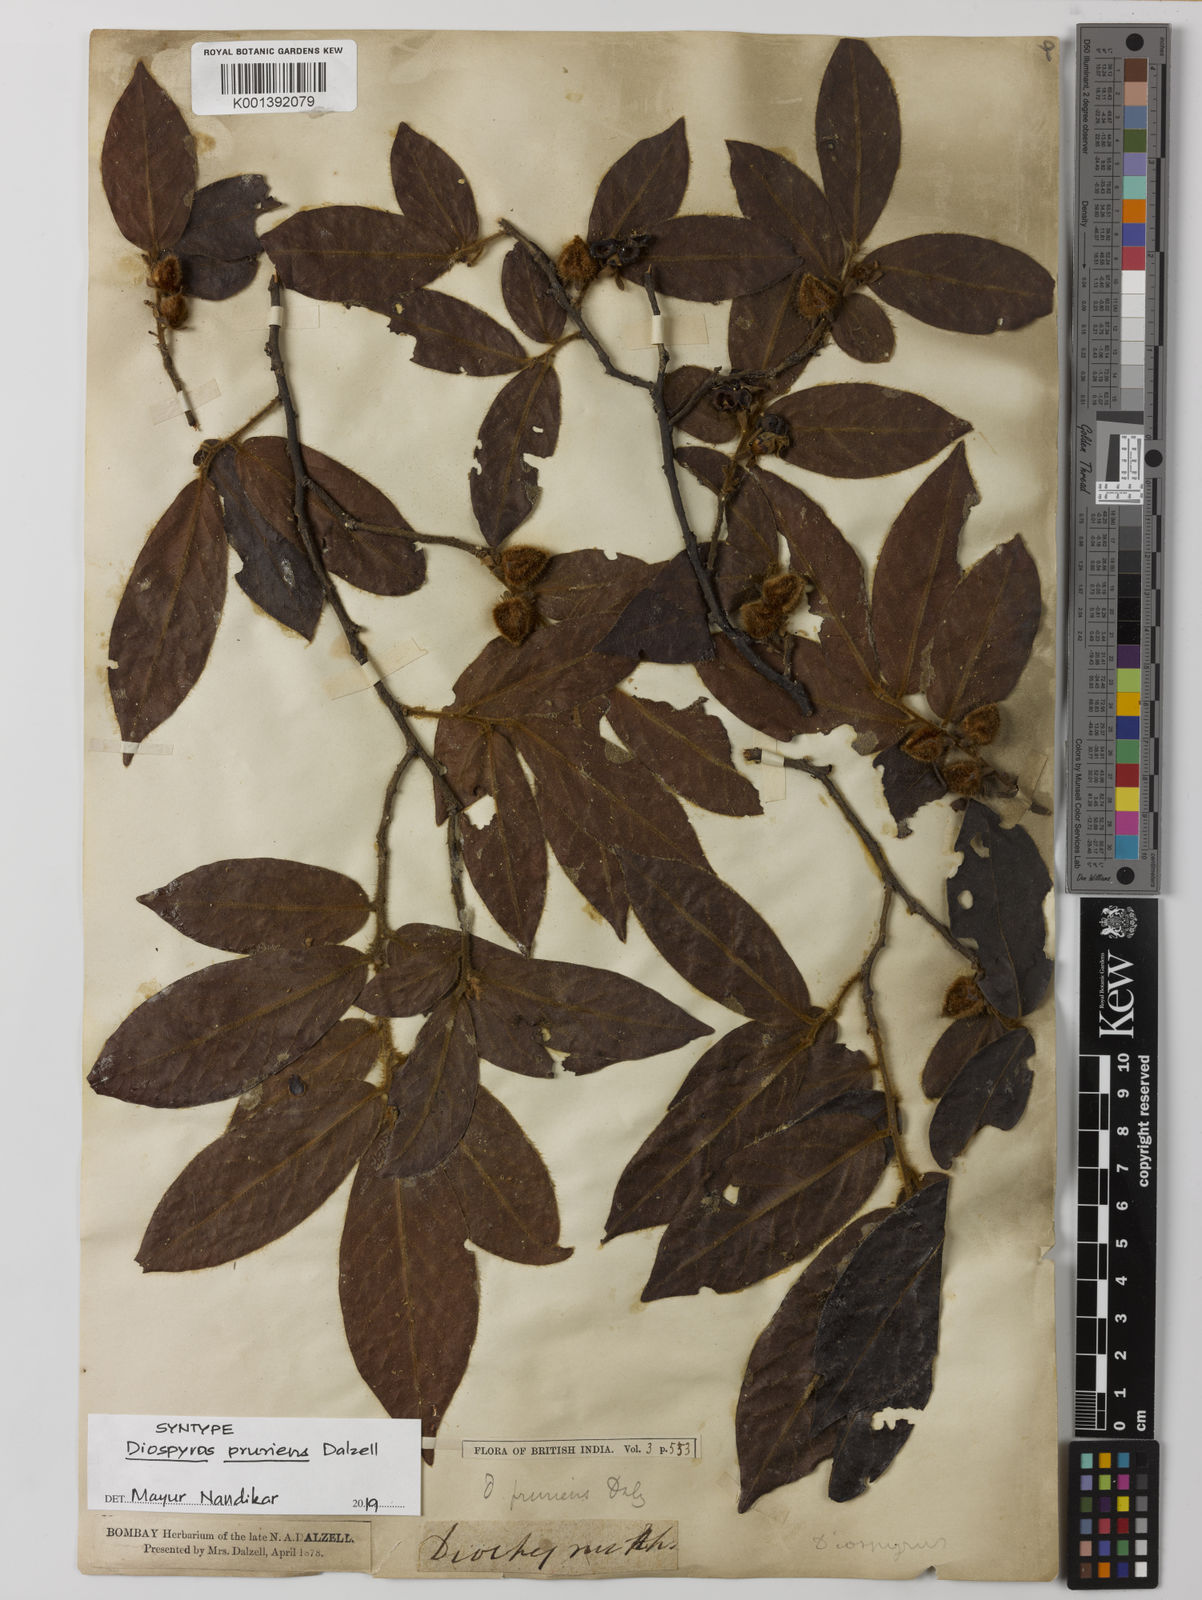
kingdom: Plantae
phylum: Tracheophyta
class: Magnoliopsida
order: Ericales
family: Ebenaceae
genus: Diospyros
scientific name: Diospyros pruriens
